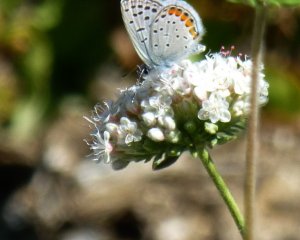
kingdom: Animalia
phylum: Arthropoda
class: Insecta
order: Lepidoptera
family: Lycaenidae
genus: Plebejus
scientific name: Plebejus acmon
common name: Acmon Blue
